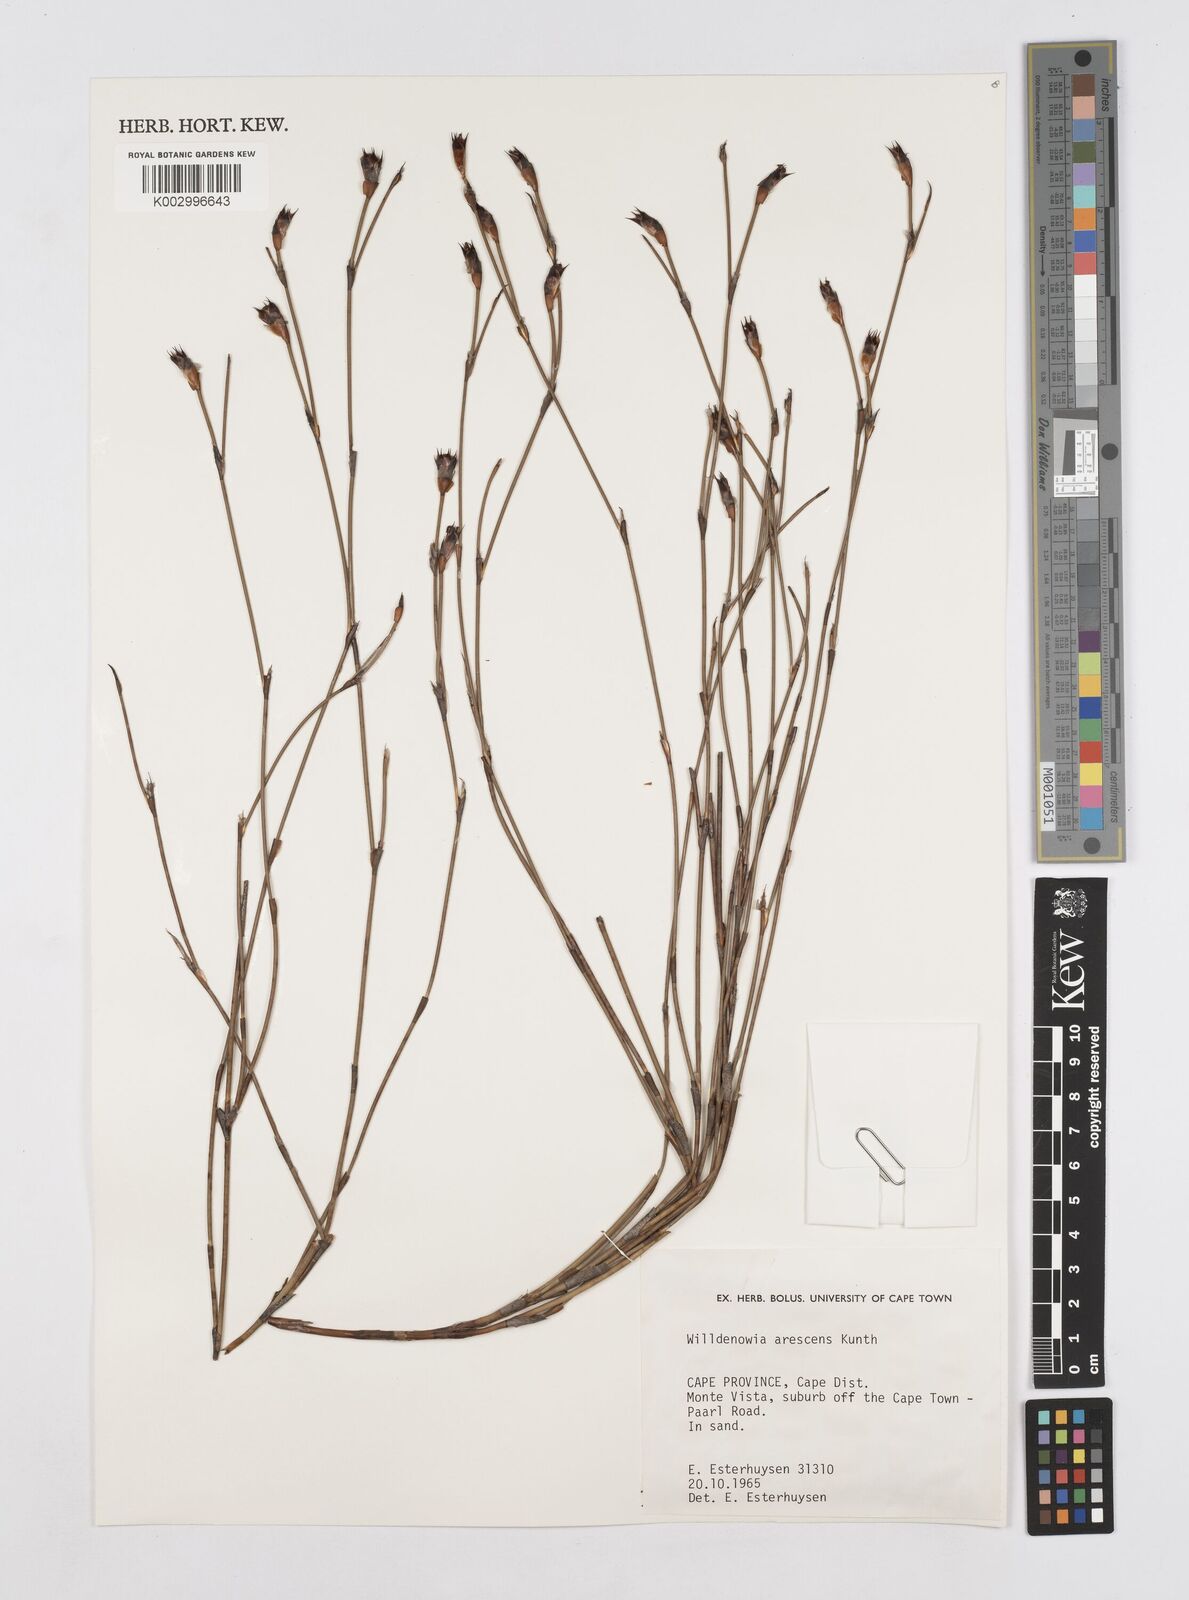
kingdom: Plantae
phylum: Tracheophyta
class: Liliopsida
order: Poales
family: Restionaceae
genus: Willdenowia
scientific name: Willdenowia arescens
